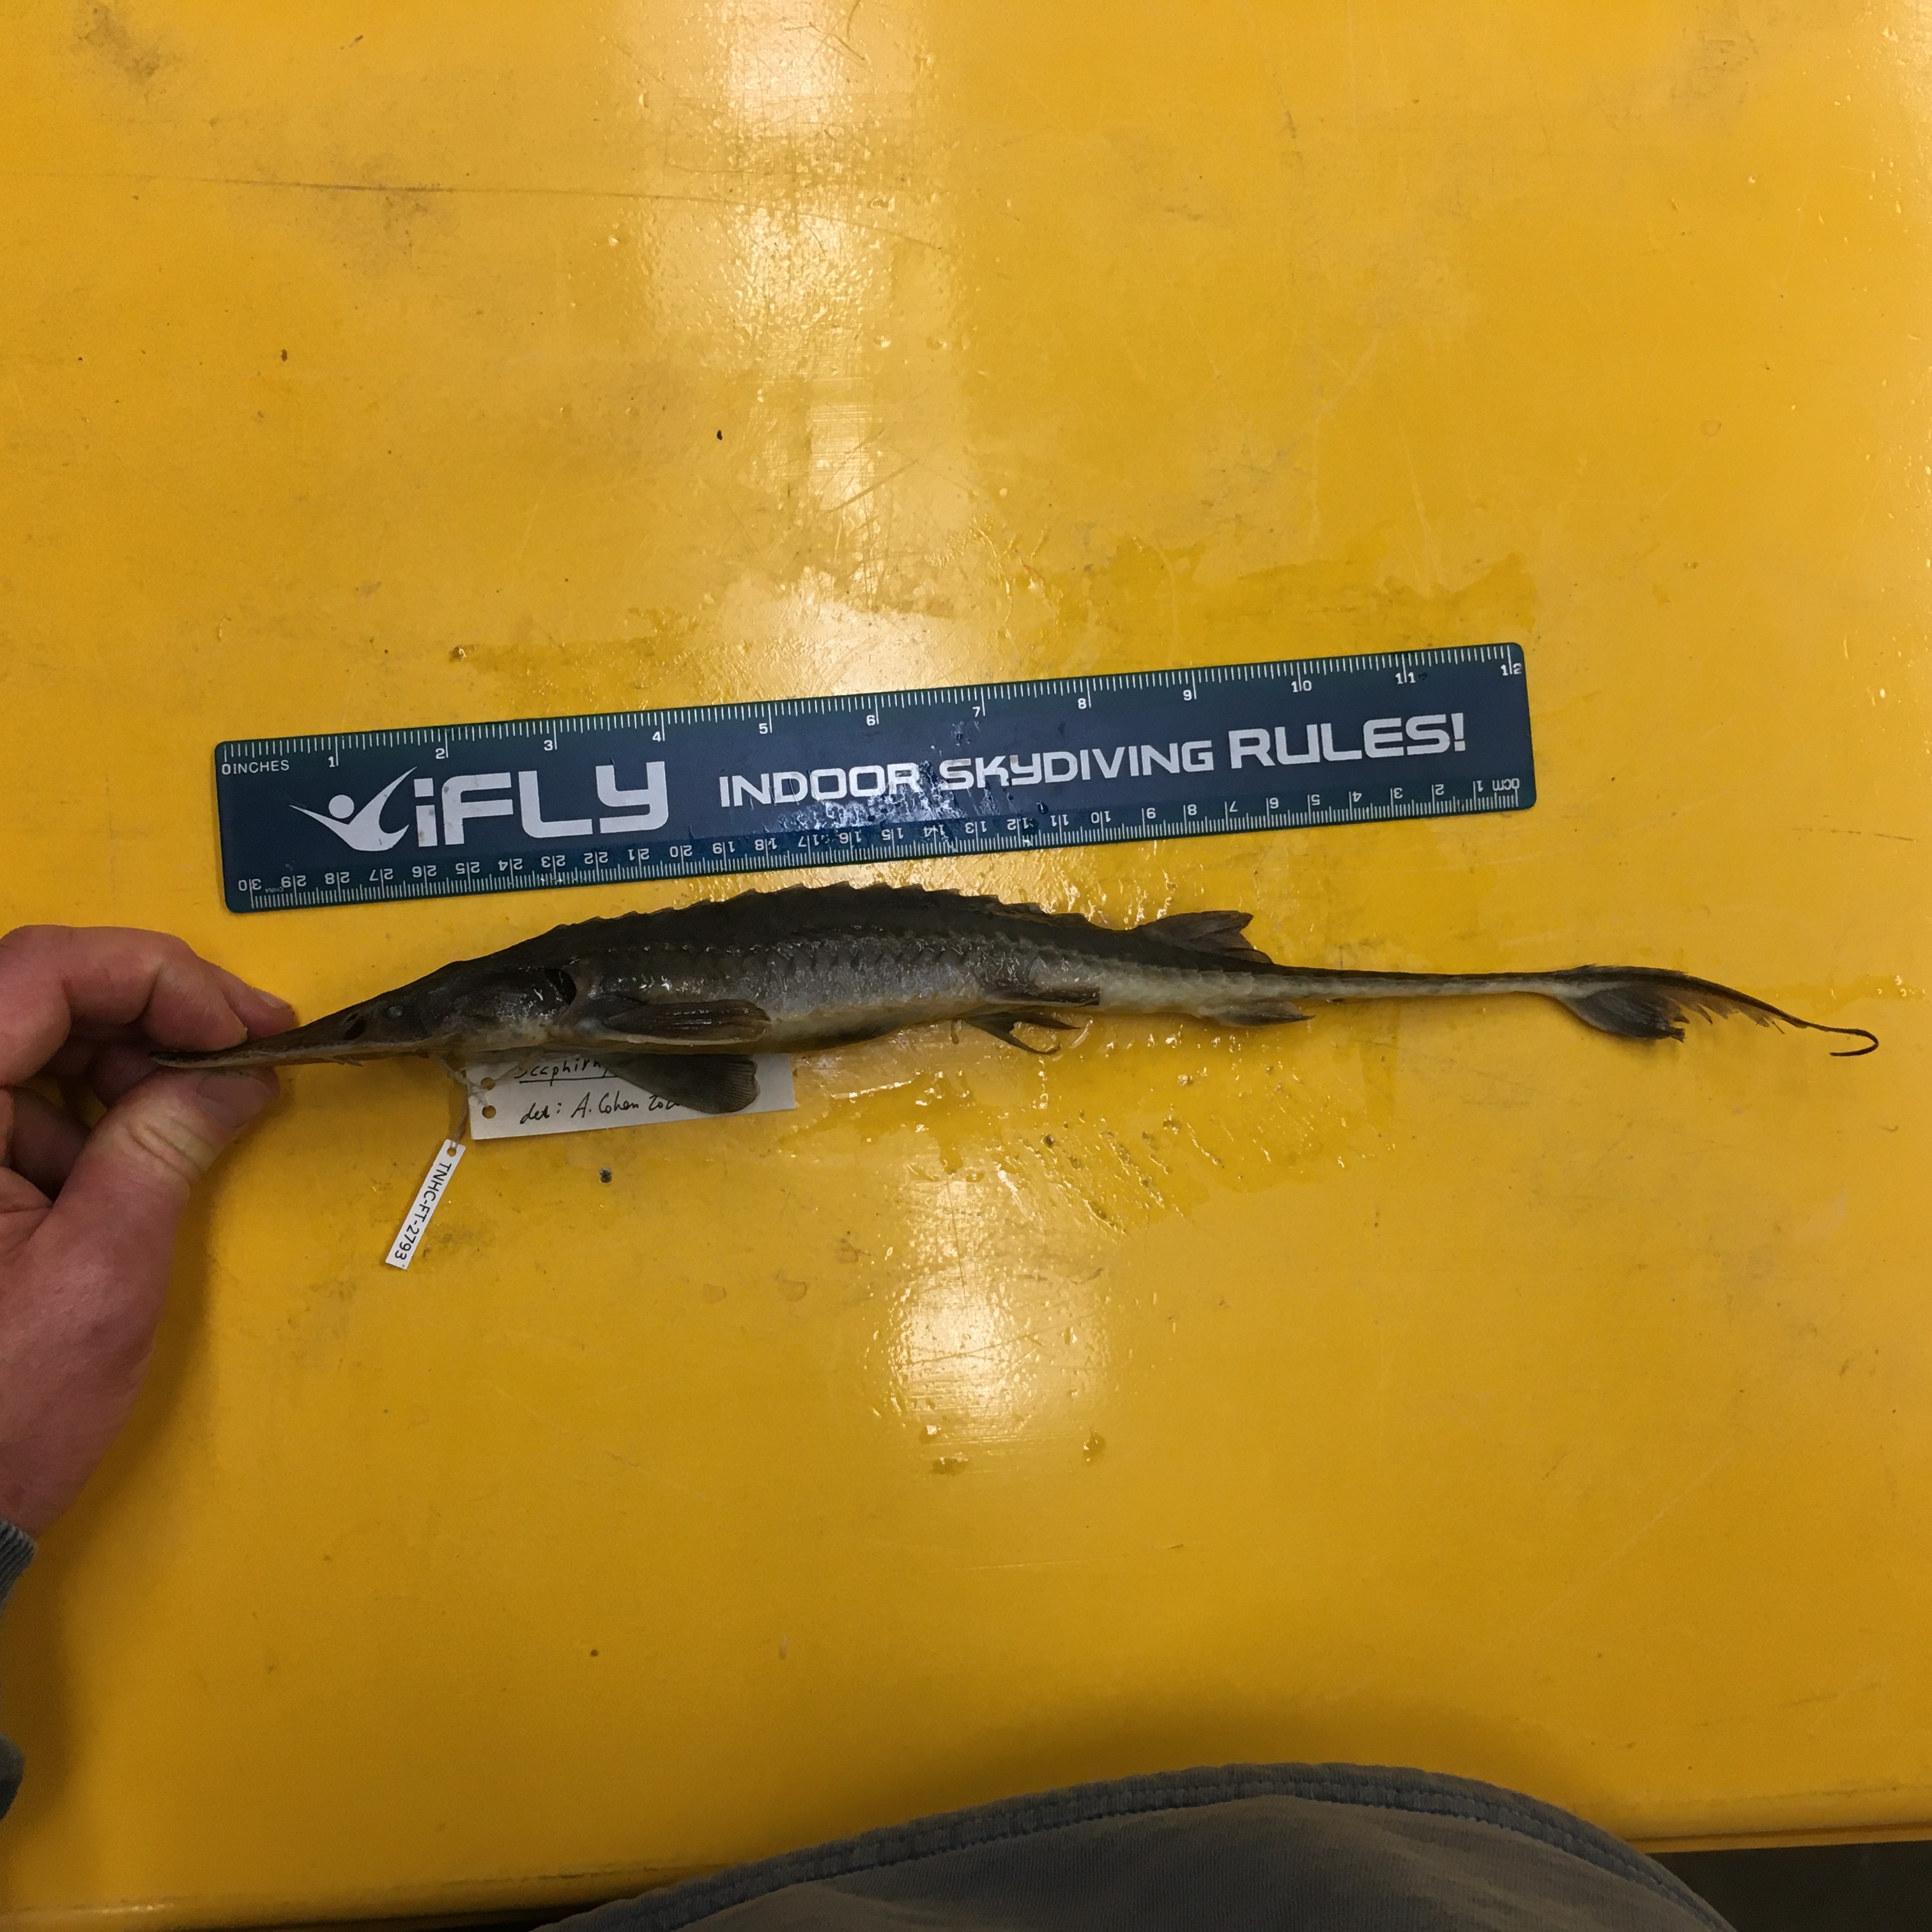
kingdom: Animalia
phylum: Chordata
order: Acipenseriformes
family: Acipenseridae
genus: Scaphirhynchus
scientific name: Scaphirhynchus albus
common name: Pallid sturgeon
